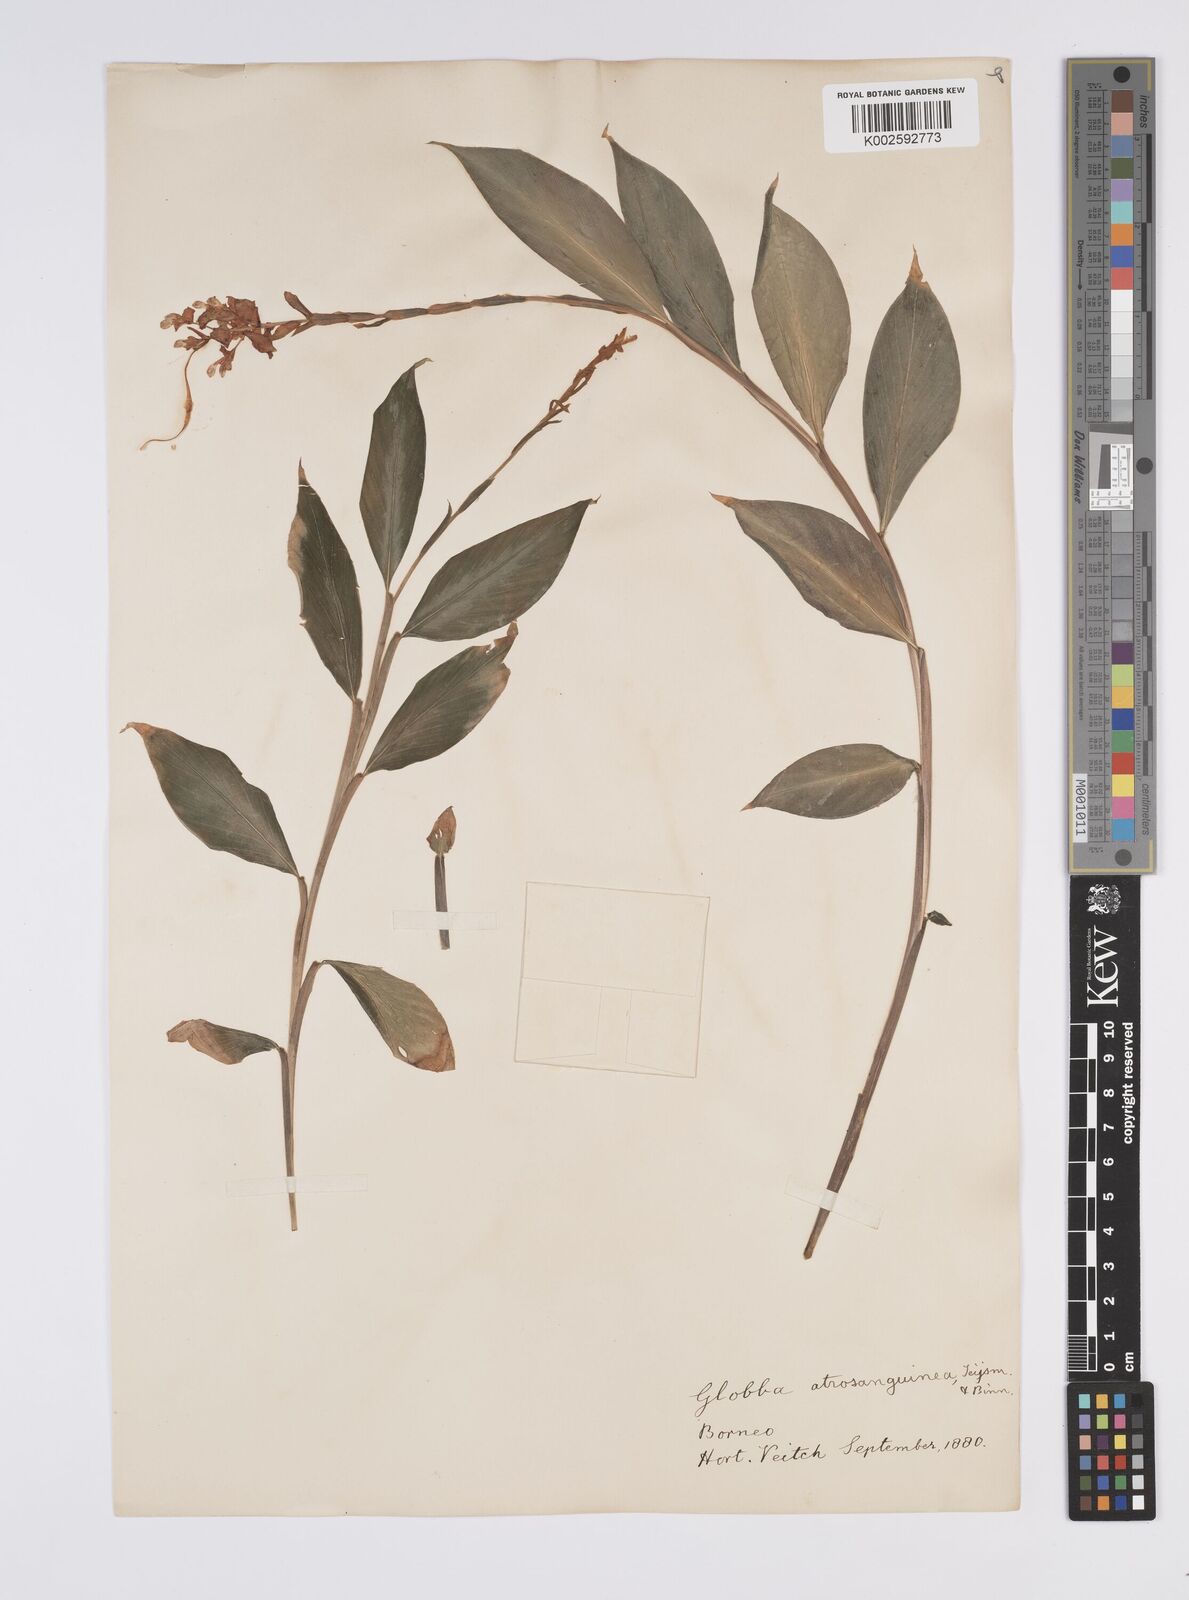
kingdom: Plantae
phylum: Tracheophyta
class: Liliopsida
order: Zingiberales
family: Zingiberaceae
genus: Globba
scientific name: Globba atrosanguinea
